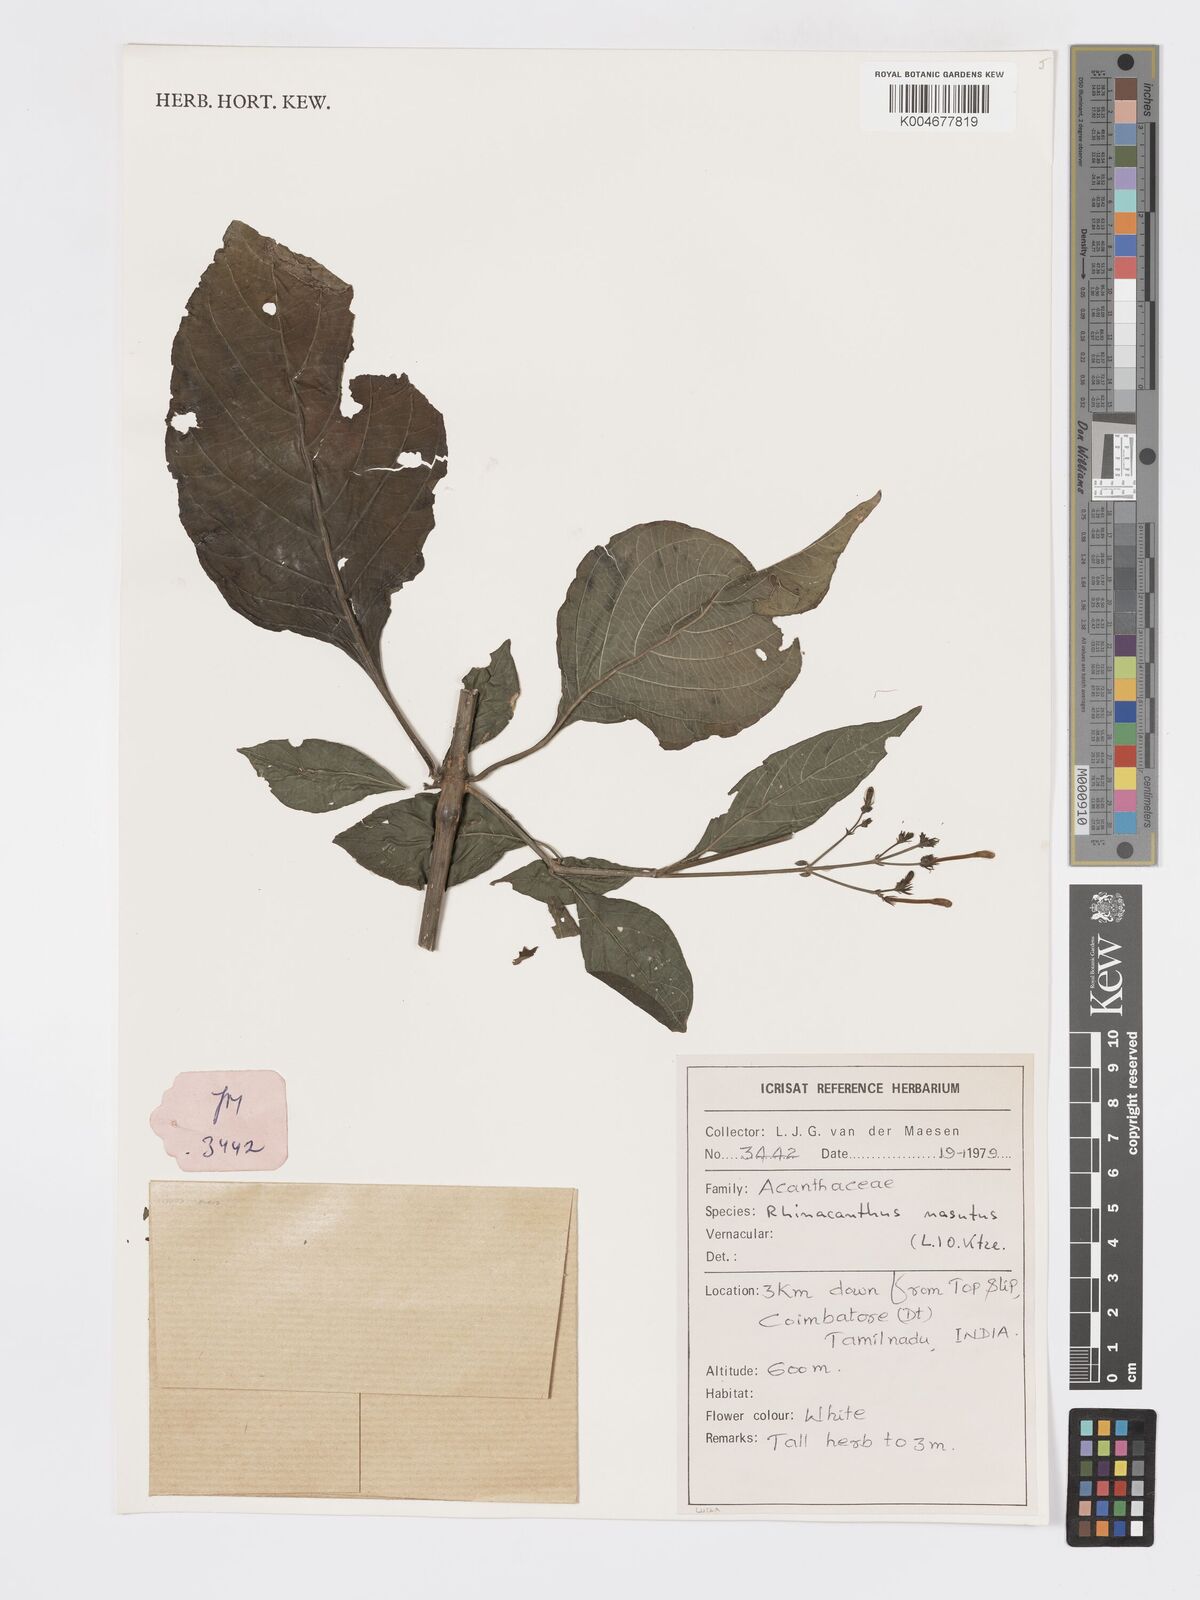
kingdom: Plantae
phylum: Tracheophyta
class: Magnoliopsida
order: Lamiales
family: Acanthaceae
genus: Rhinacanthus
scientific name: Rhinacanthus nasutus
